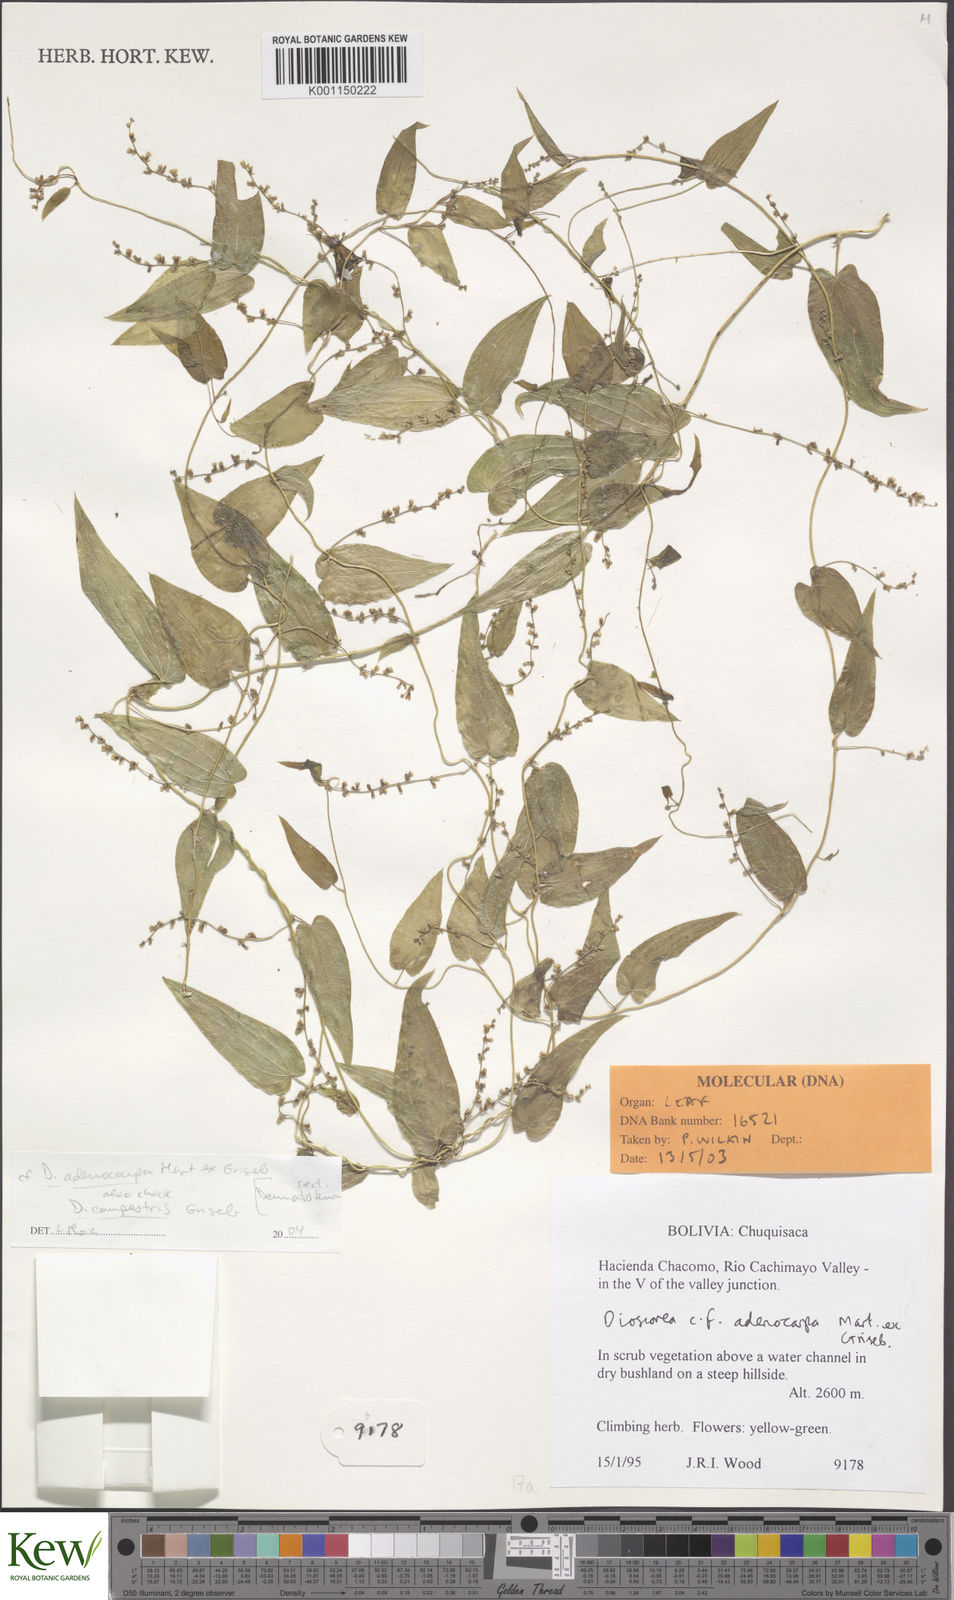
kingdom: Plantae
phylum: Tracheophyta
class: Liliopsida
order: Dioscoreales
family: Dioscoreaceae
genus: Dioscorea
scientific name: Dioscorea ovata
